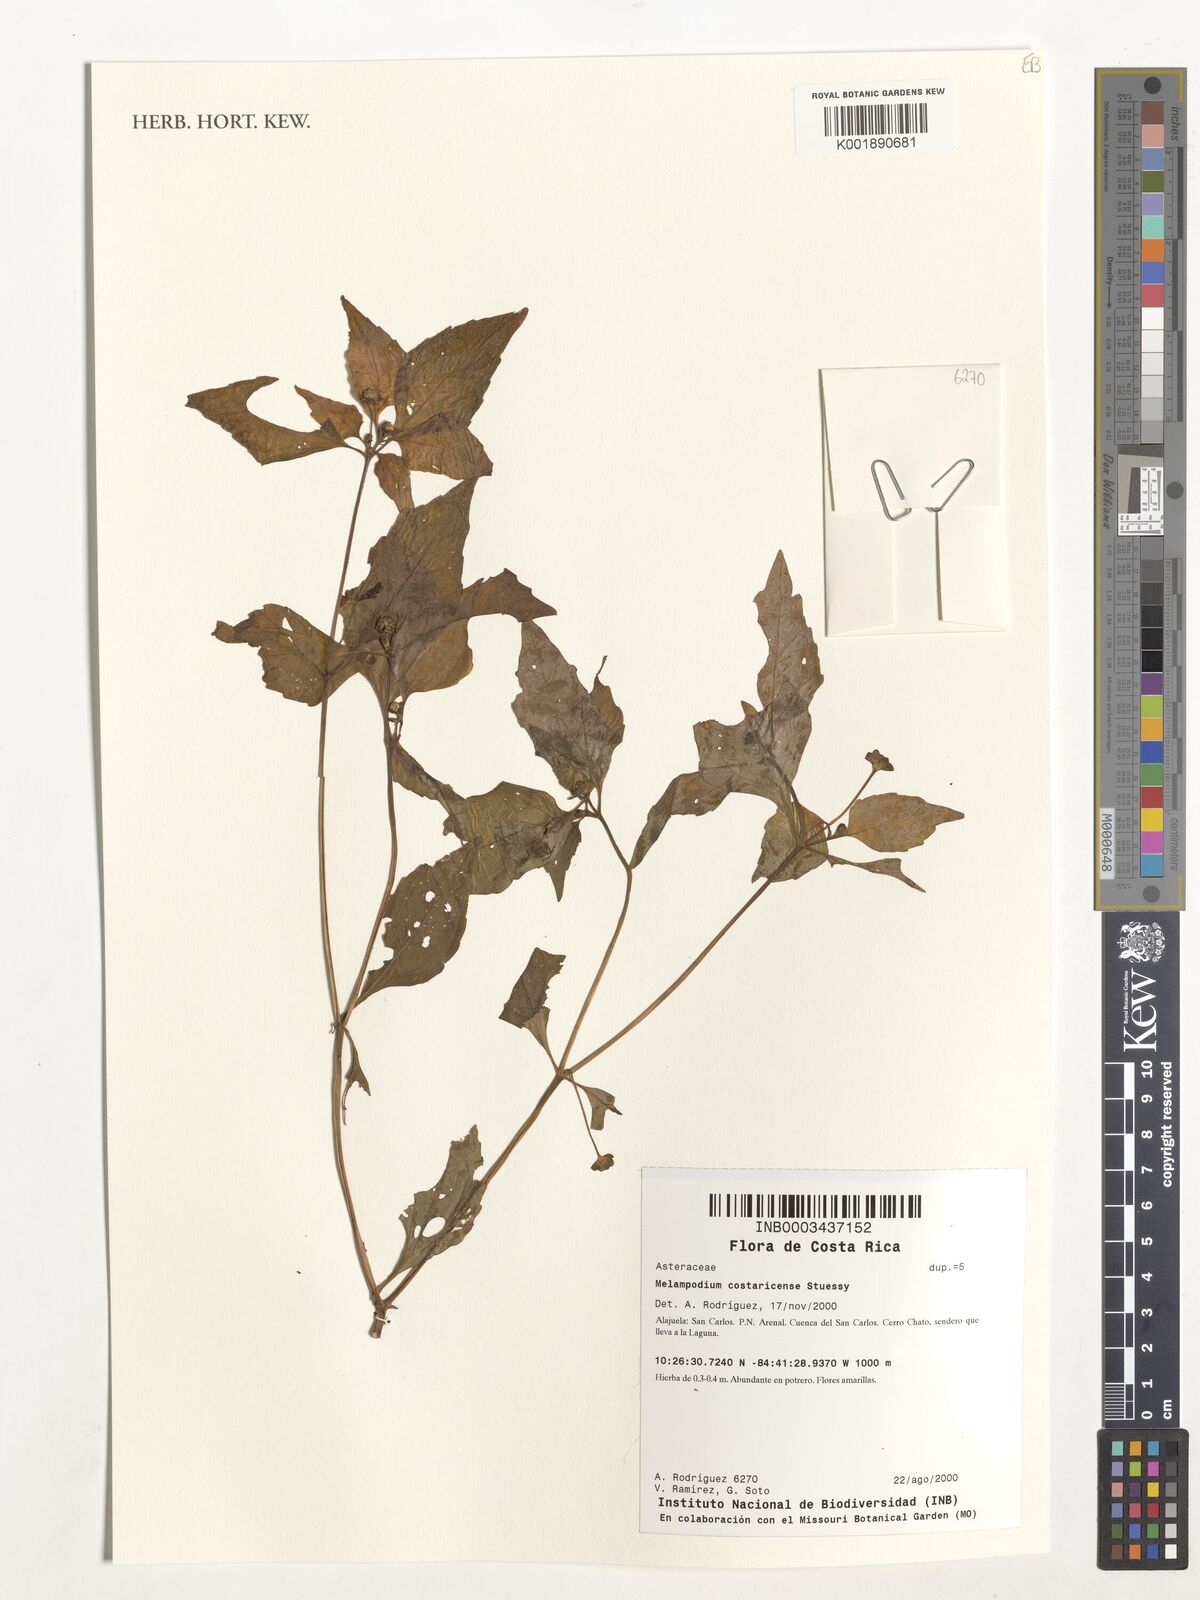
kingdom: Plantae
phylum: Tracheophyta
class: Magnoliopsida
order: Asterales
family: Asteraceae
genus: Melampodium
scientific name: Melampodium costaricense
